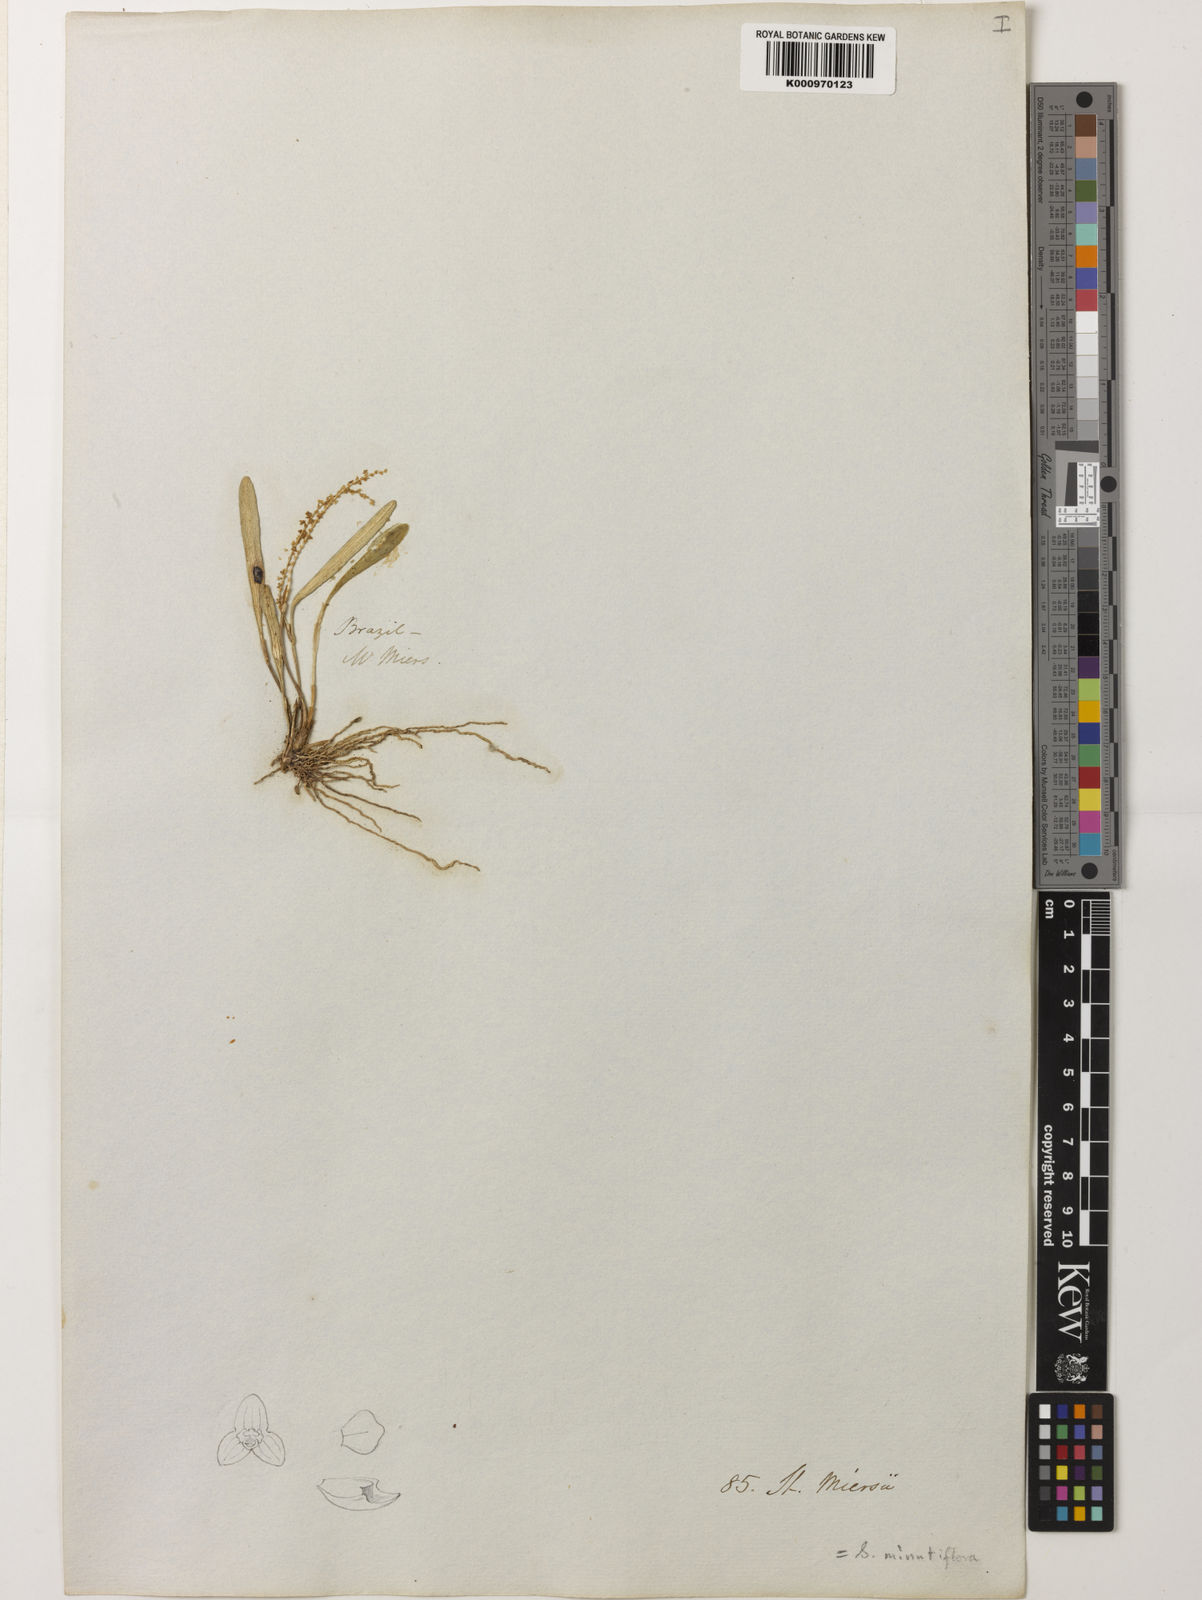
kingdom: Plantae
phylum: Tracheophyta
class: Liliopsida
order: Asparagales
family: Orchidaceae
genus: Stelis
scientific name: Stelis costaricensis
